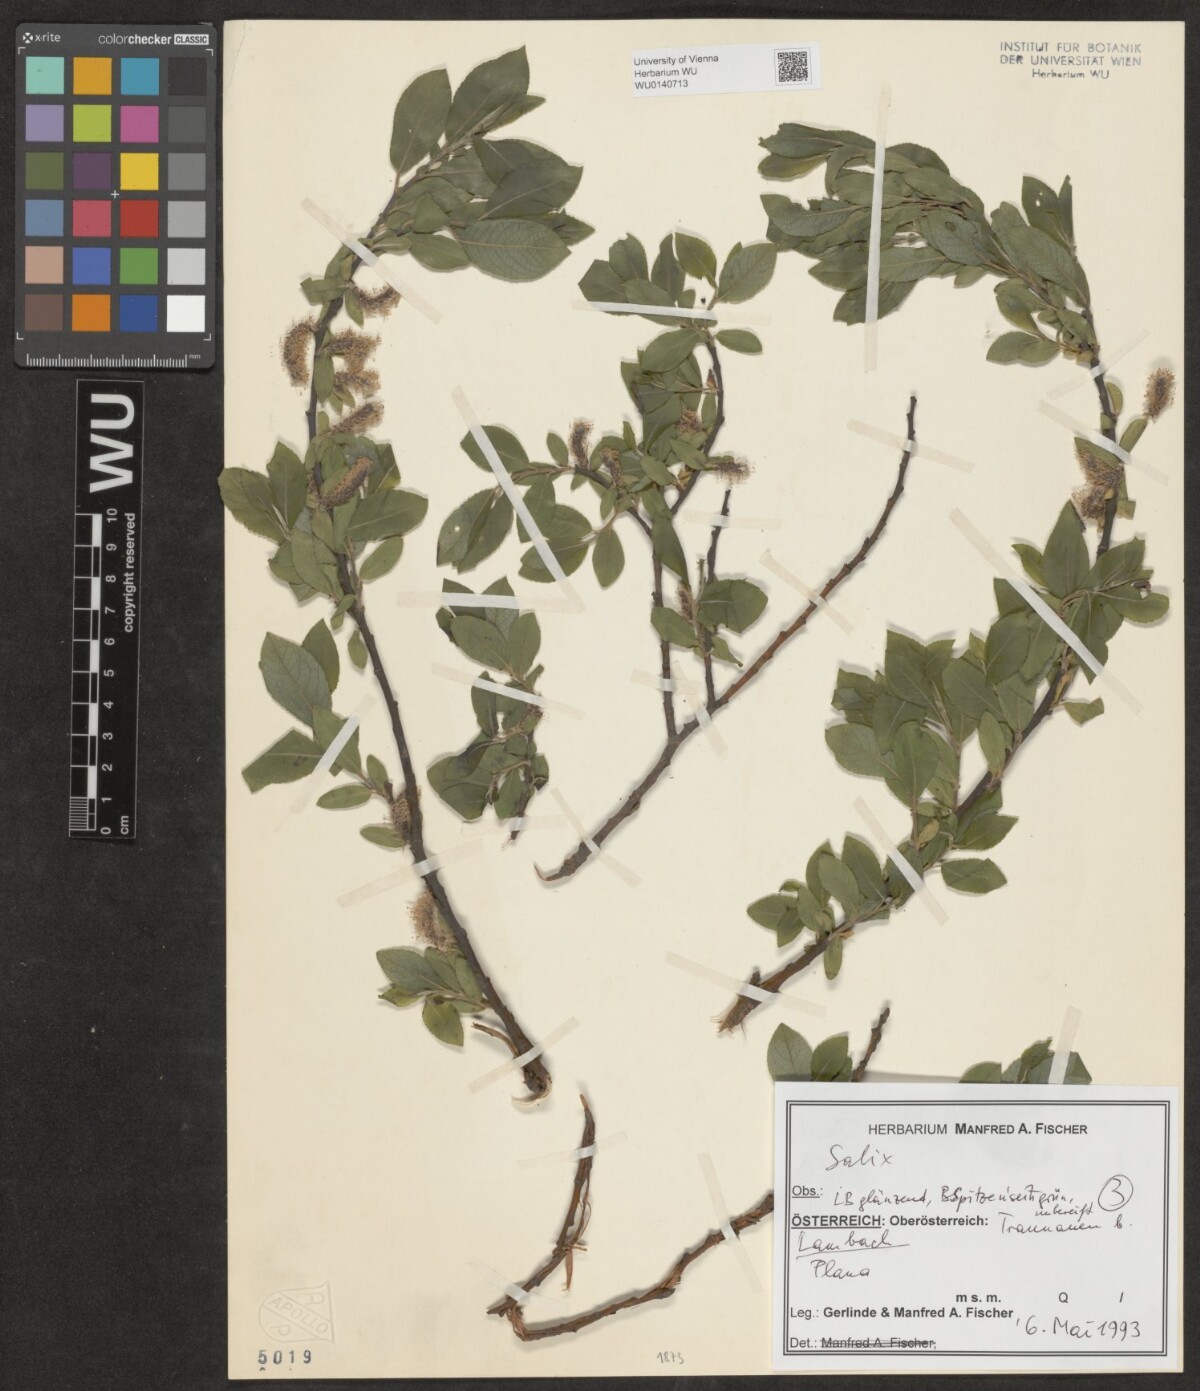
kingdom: Plantae
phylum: Tracheophyta
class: Magnoliopsida
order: Malpighiales
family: Salicaceae
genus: Salix
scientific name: Salix
